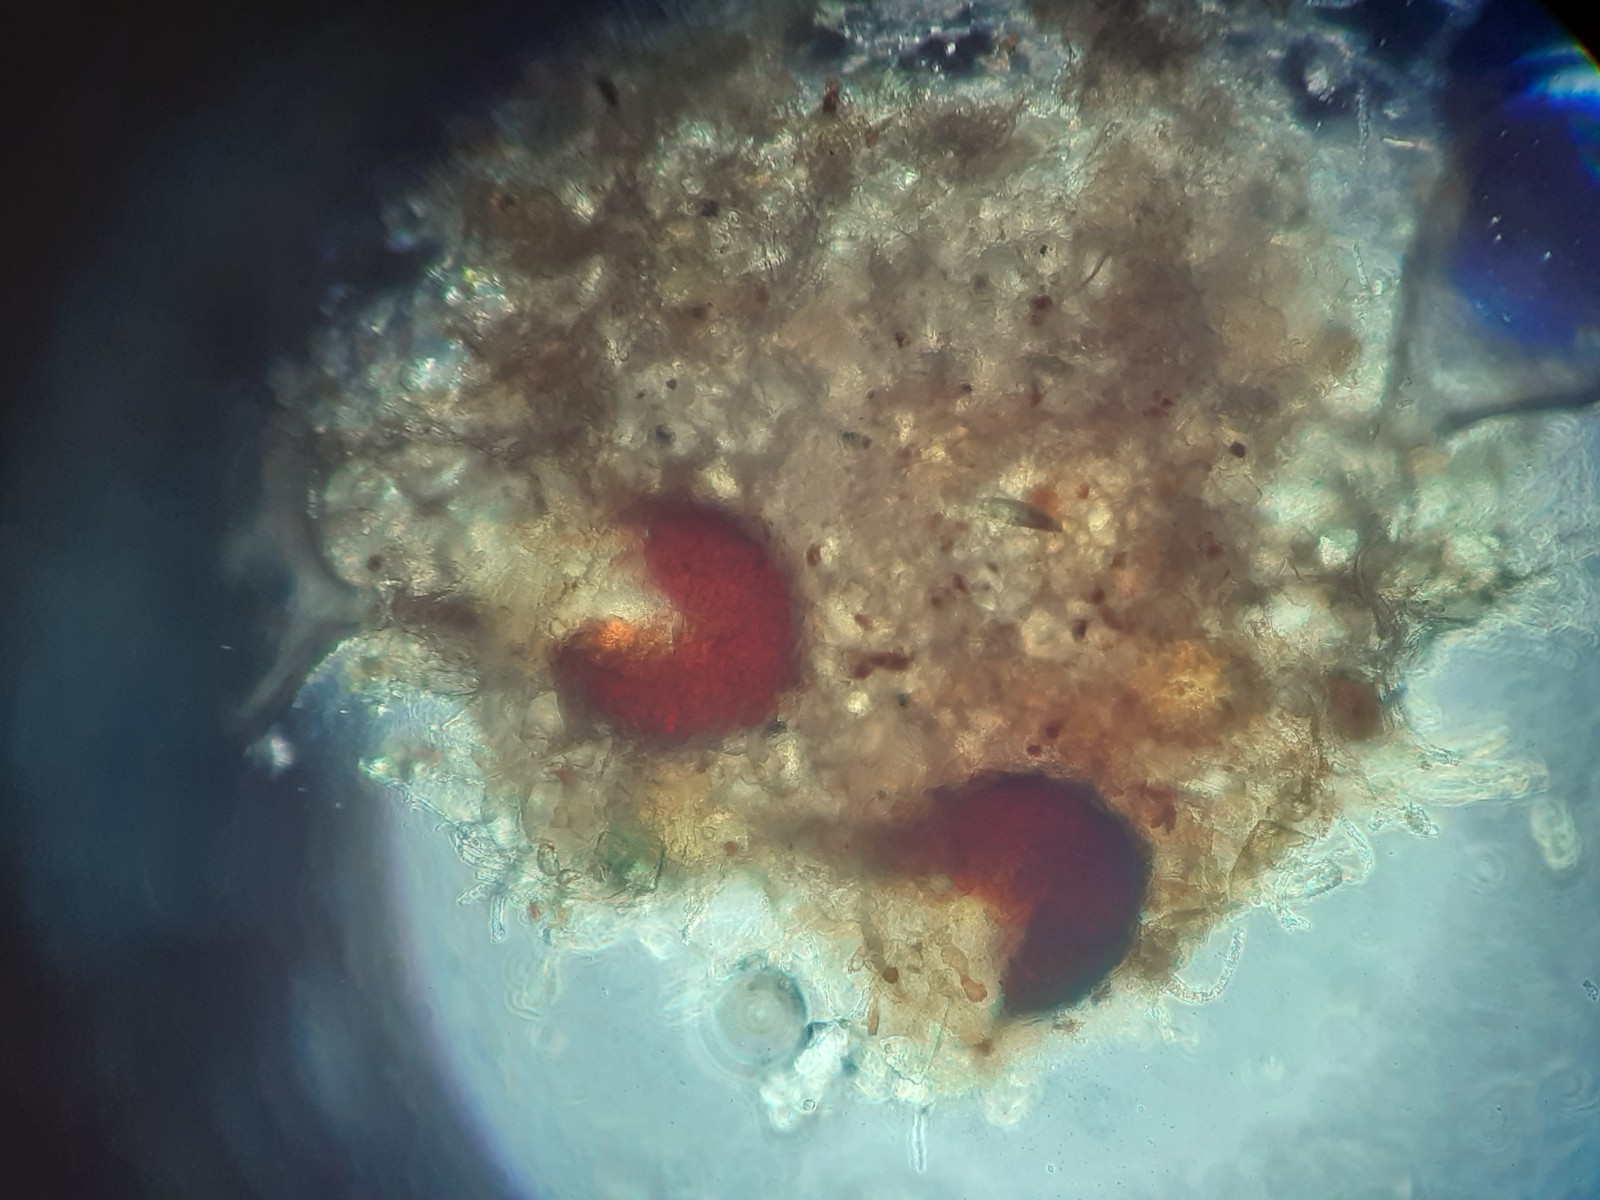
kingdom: Fungi
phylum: Ascomycota
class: Leotiomycetes
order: Helotiales
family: Erysiphaceae
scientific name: Erysiphaceae
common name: meldugfamilien
